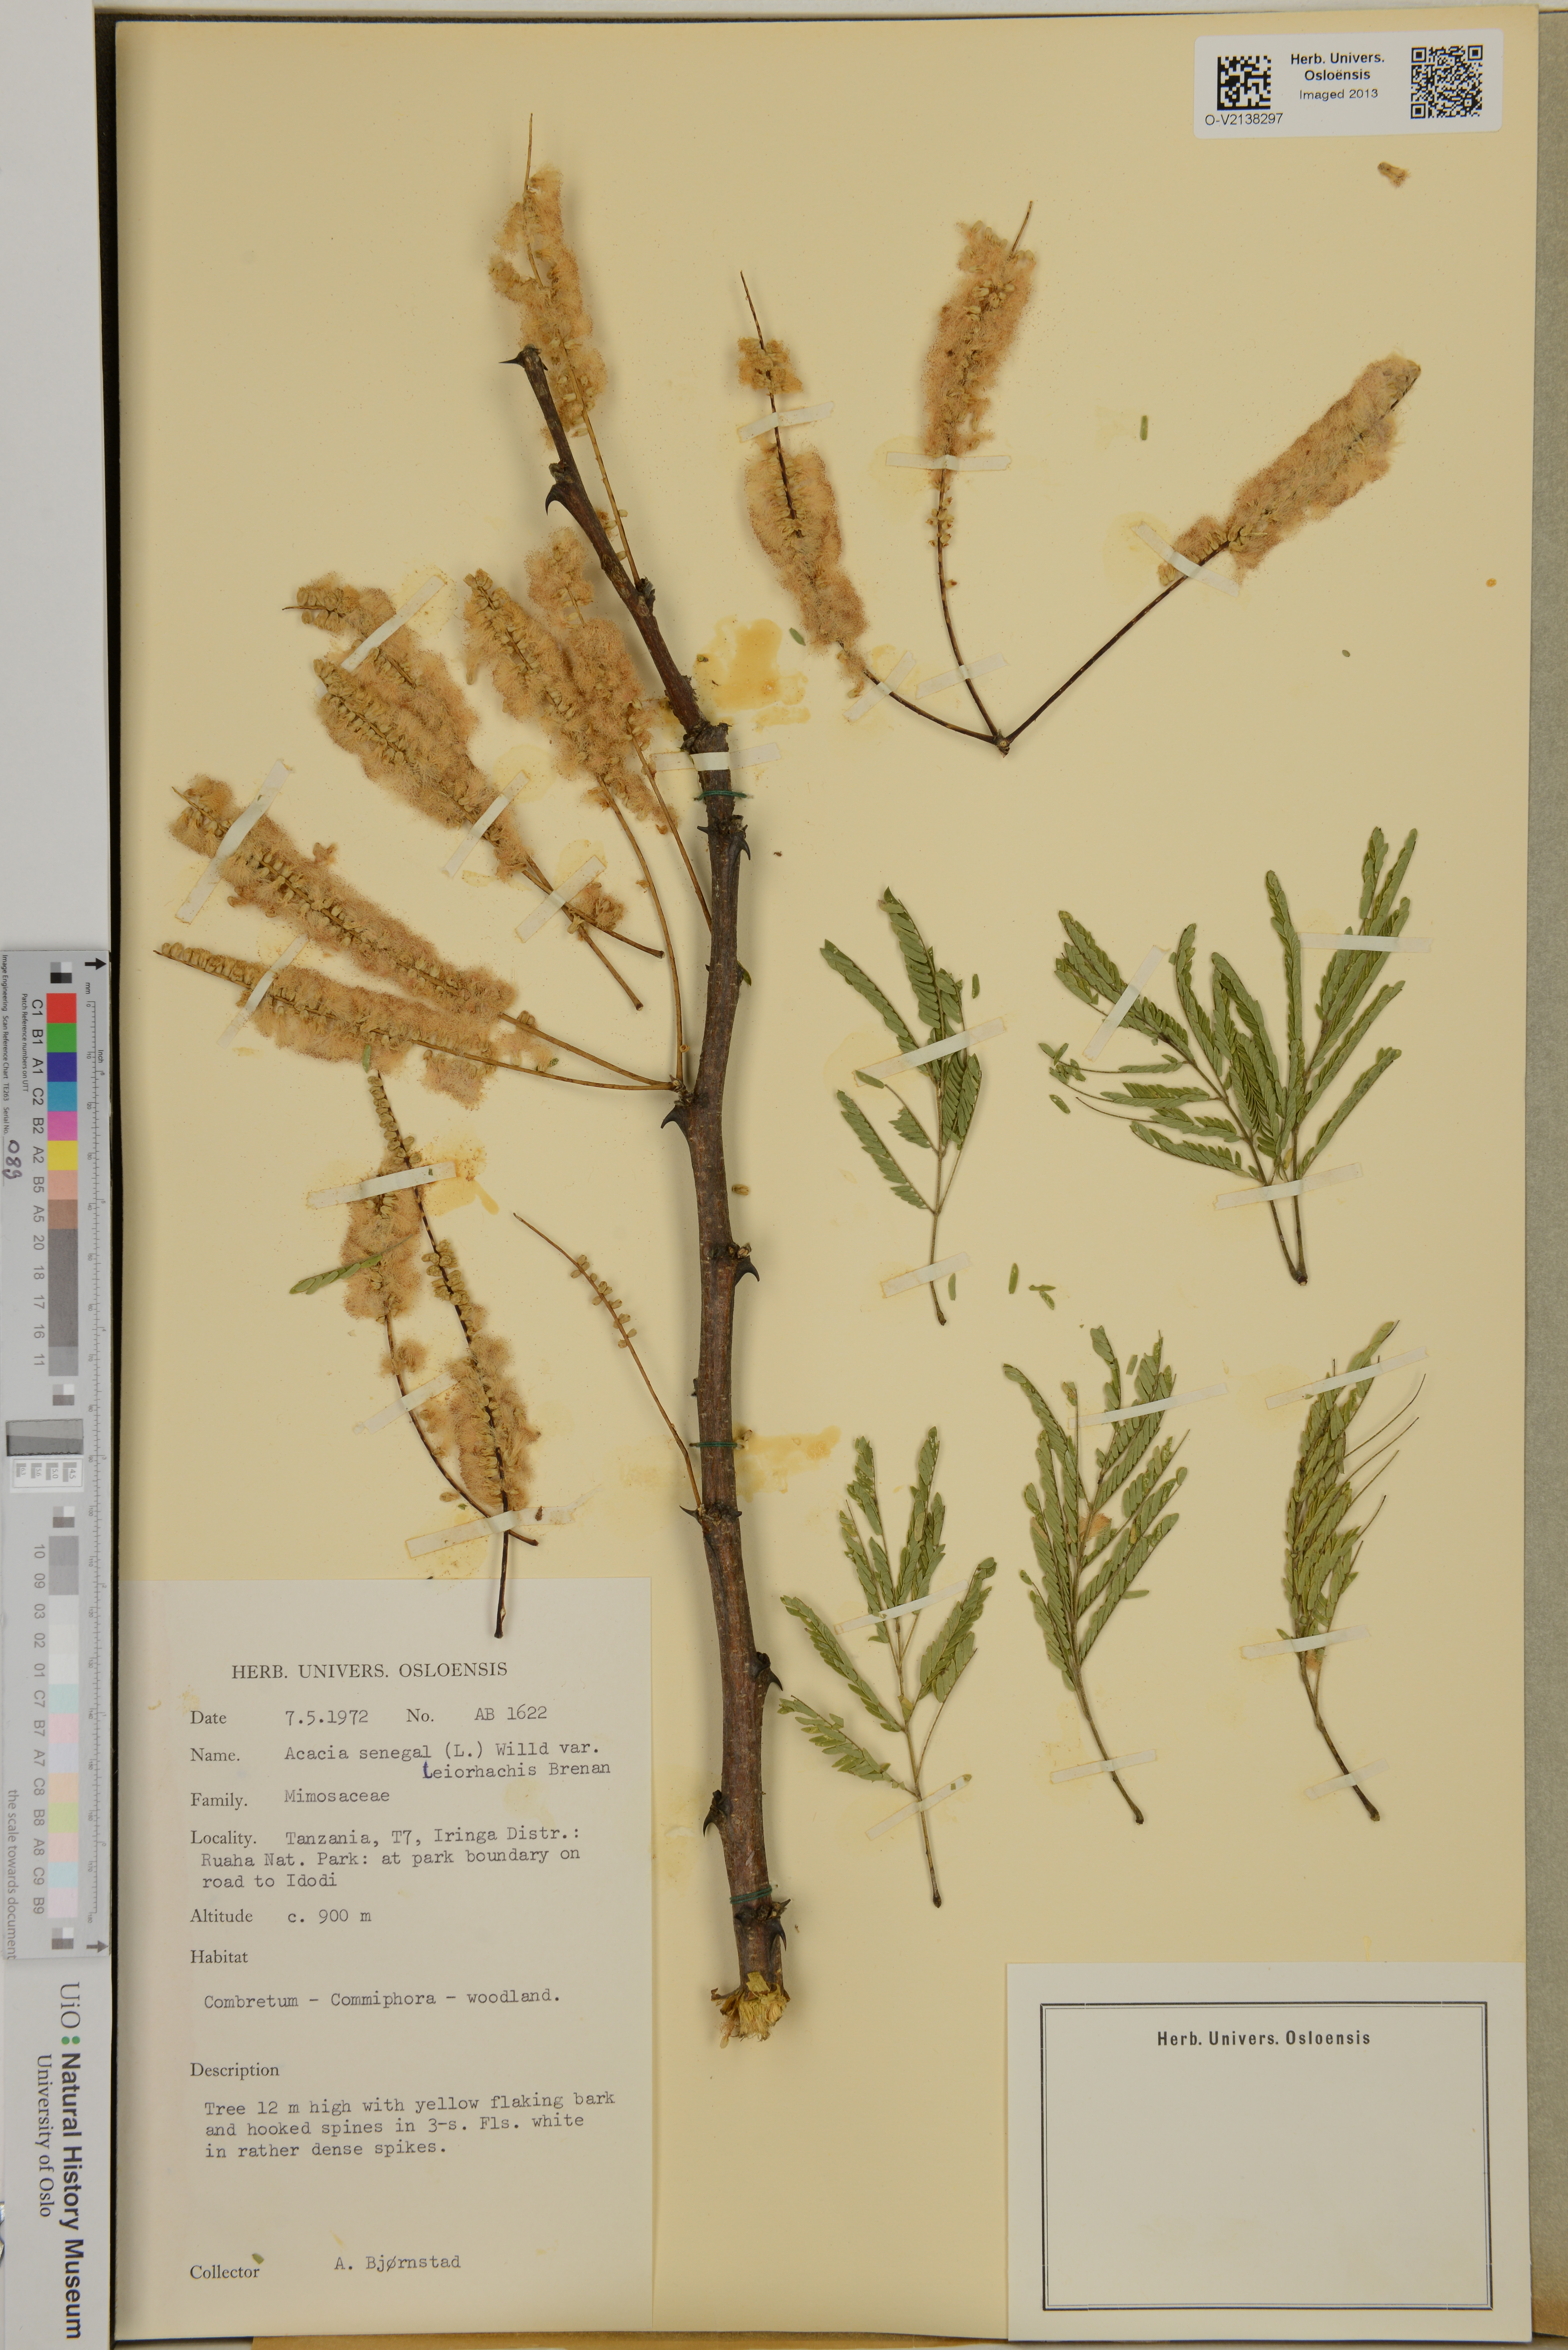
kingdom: Plantae
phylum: Tracheophyta
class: Magnoliopsida
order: Fabales
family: Fabaceae
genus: Senegalia
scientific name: Senegalia senegal
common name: Senegal-gum
